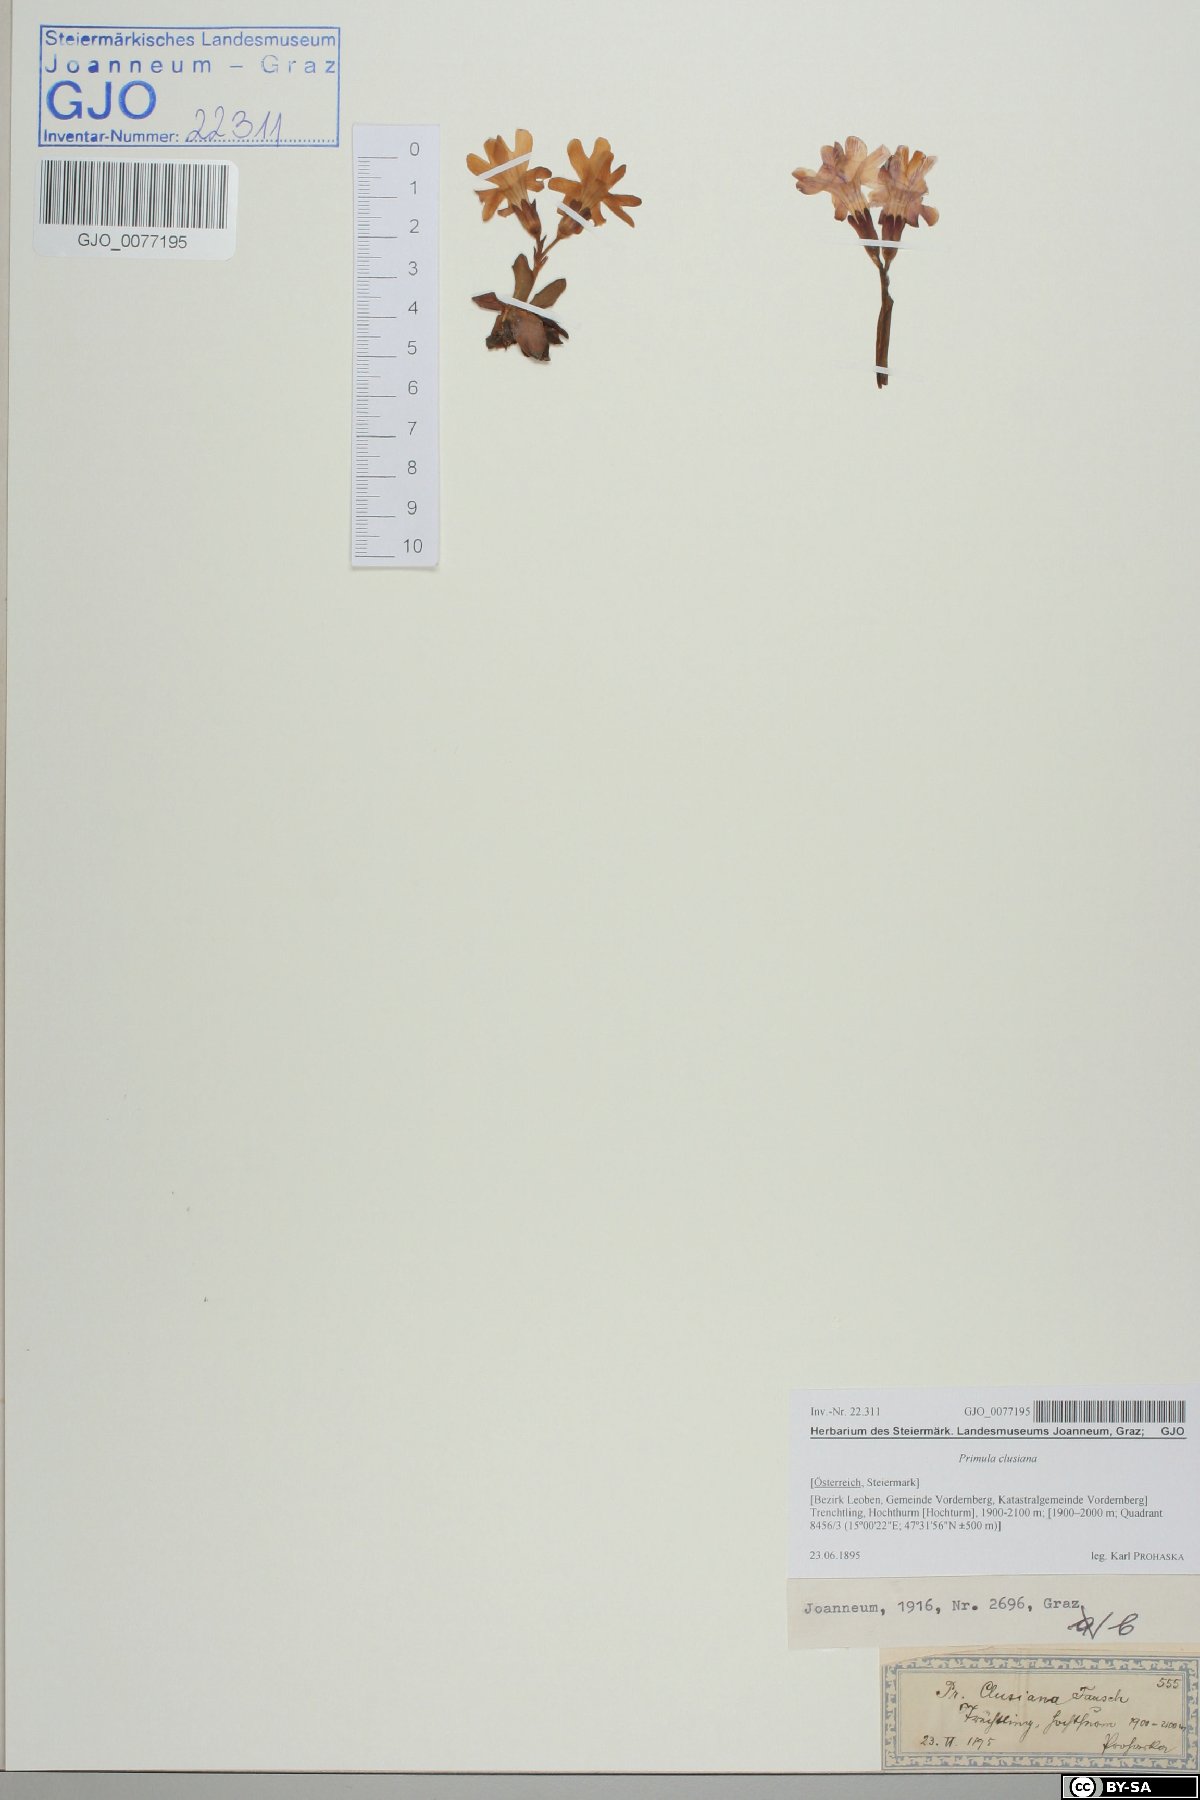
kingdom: Plantae
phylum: Tracheophyta
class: Magnoliopsida
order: Ericales
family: Primulaceae
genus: Primula
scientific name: Primula clusiana
